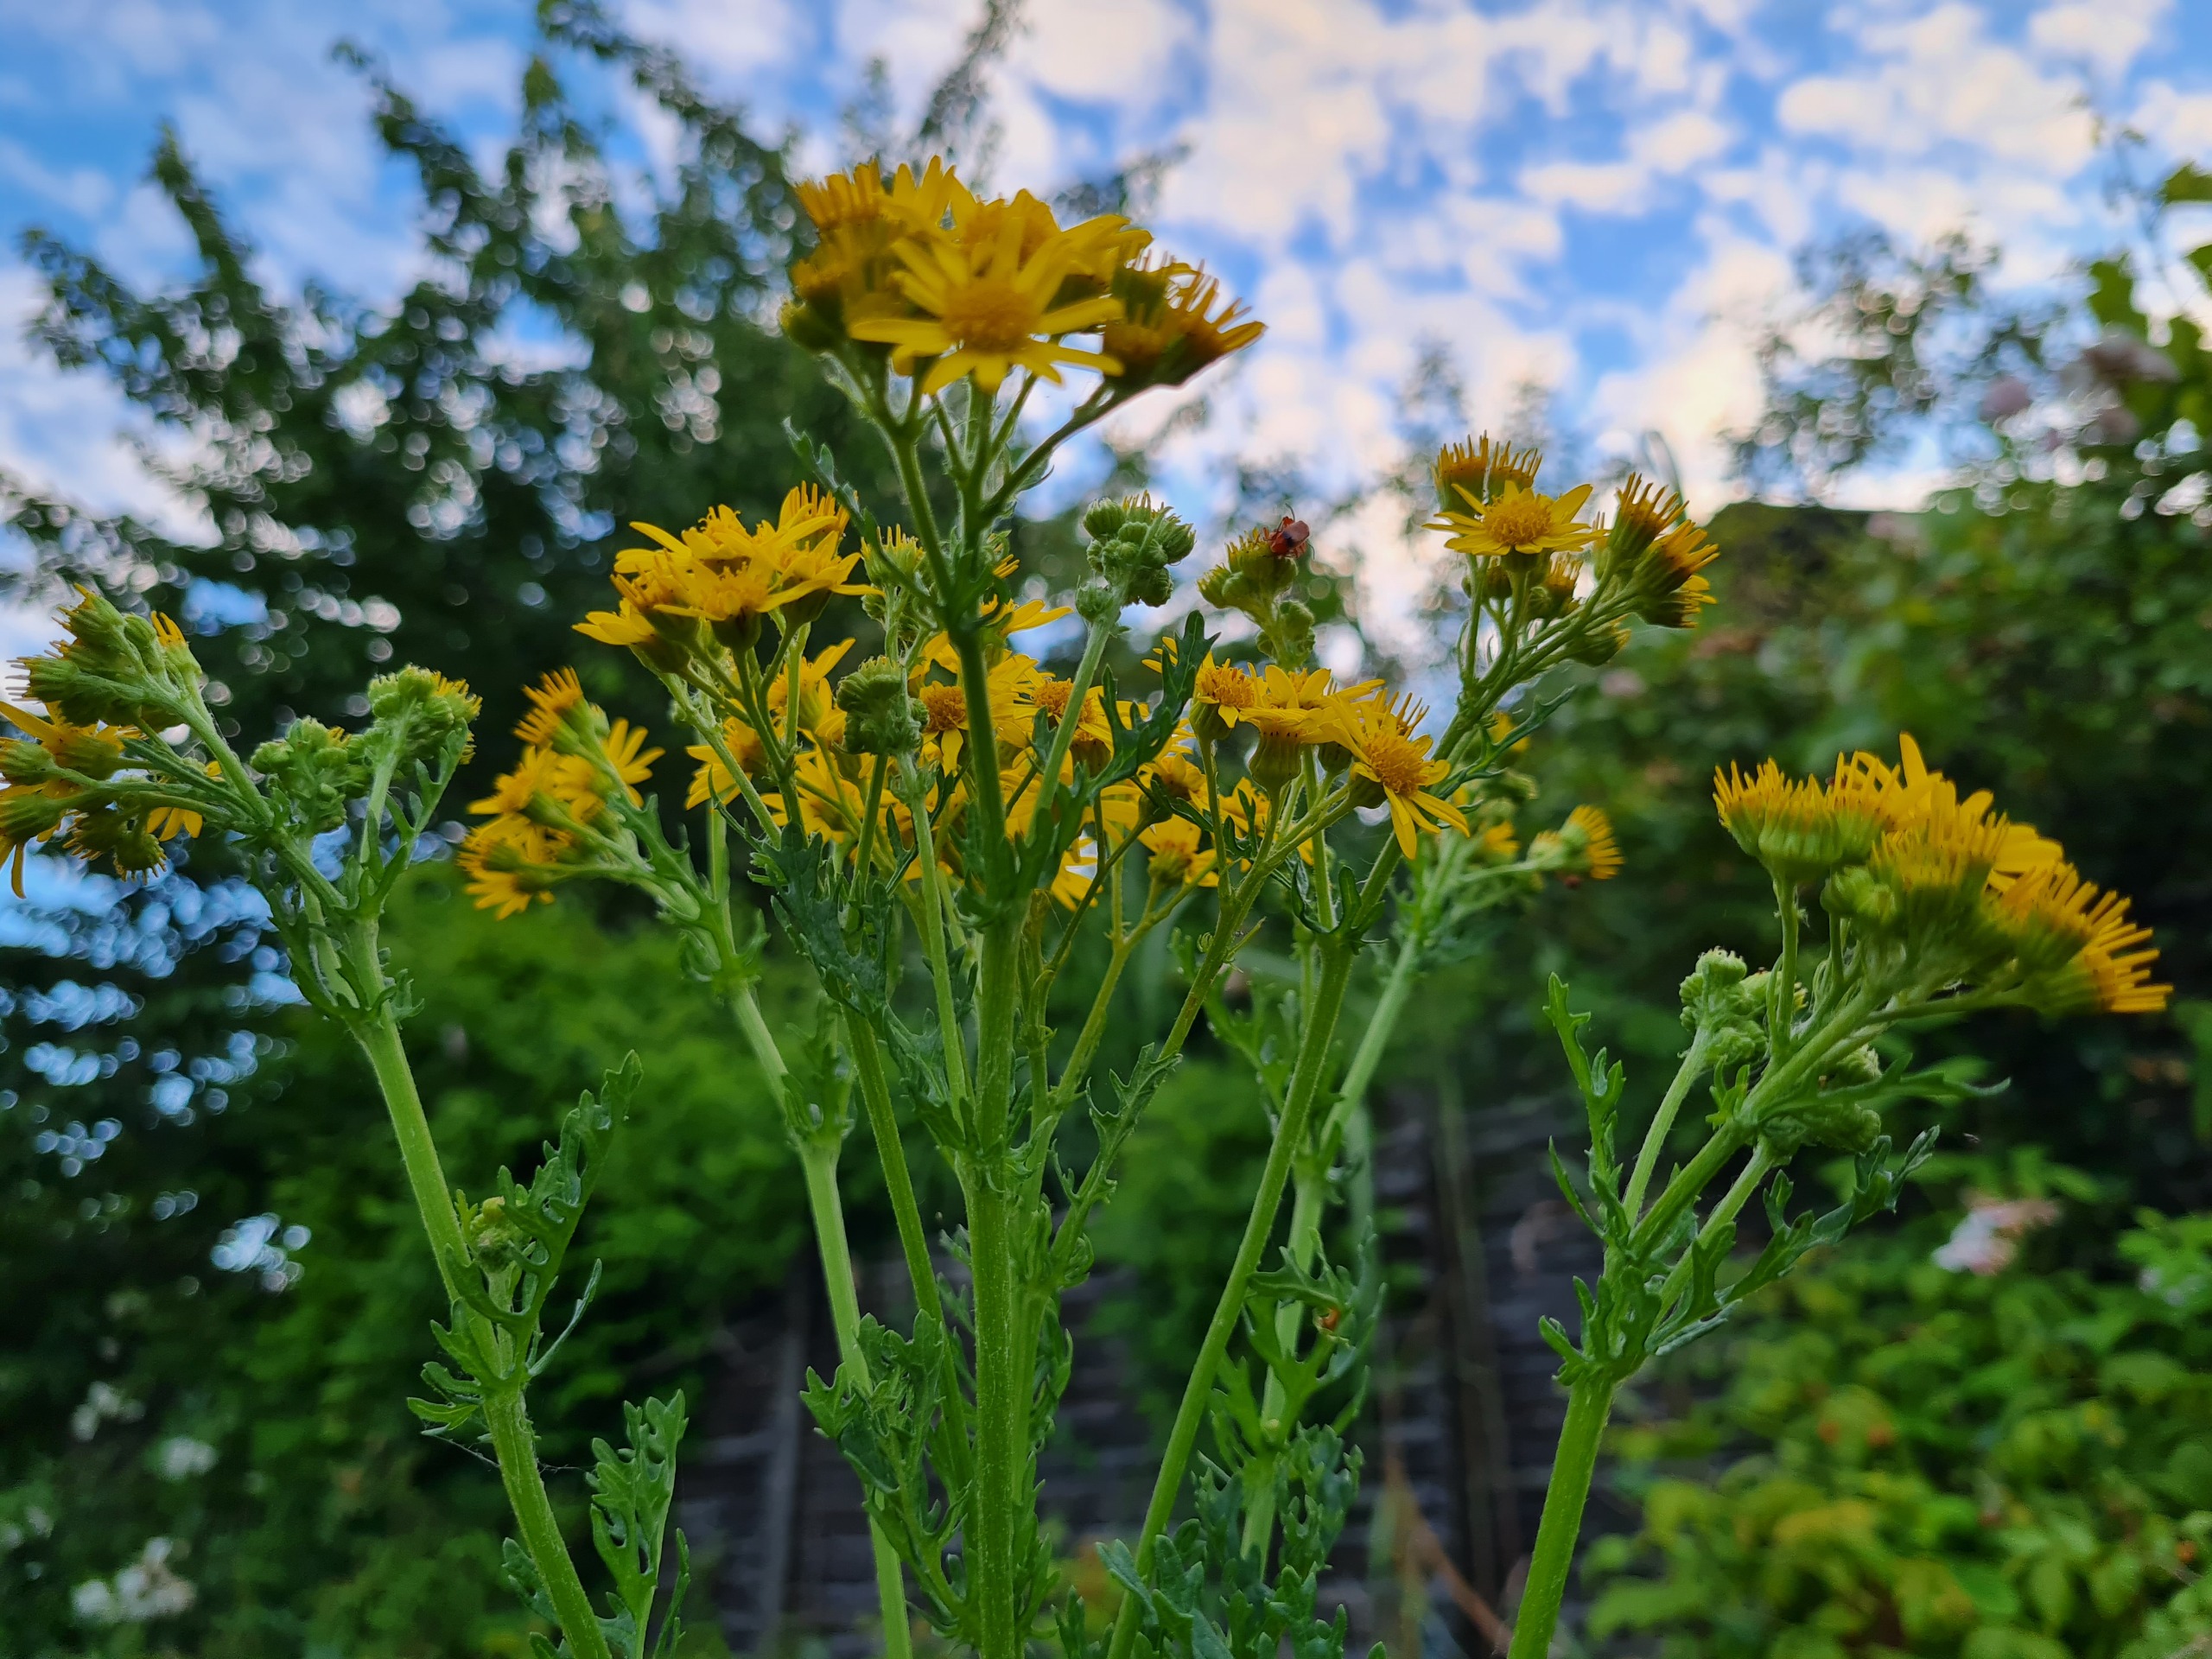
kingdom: Plantae
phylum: Tracheophyta
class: Magnoliopsida
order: Asterales
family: Asteraceae
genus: Jacobaea
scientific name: Jacobaea vulgaris
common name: Eng-brandbæger
